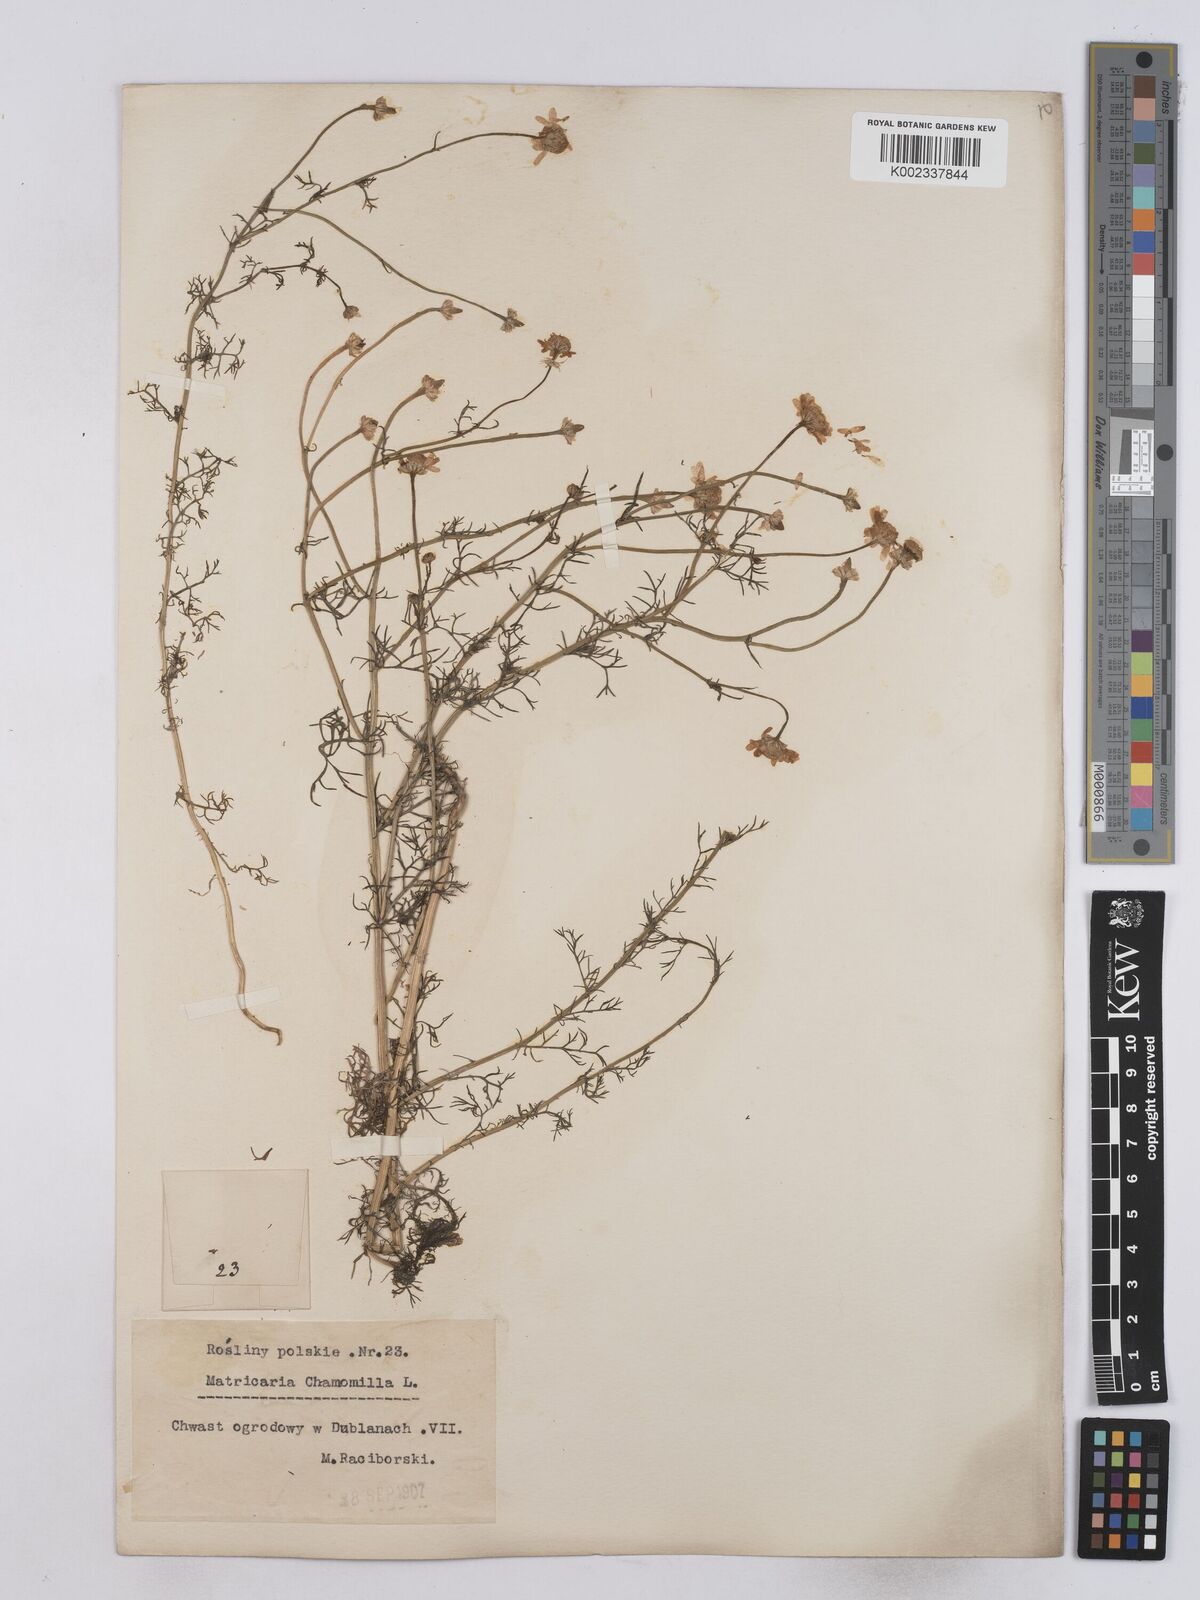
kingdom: Plantae
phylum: Tracheophyta
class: Magnoliopsida
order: Asterales
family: Asteraceae
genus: Matricaria
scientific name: Matricaria chamomilla
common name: Scented mayweed
